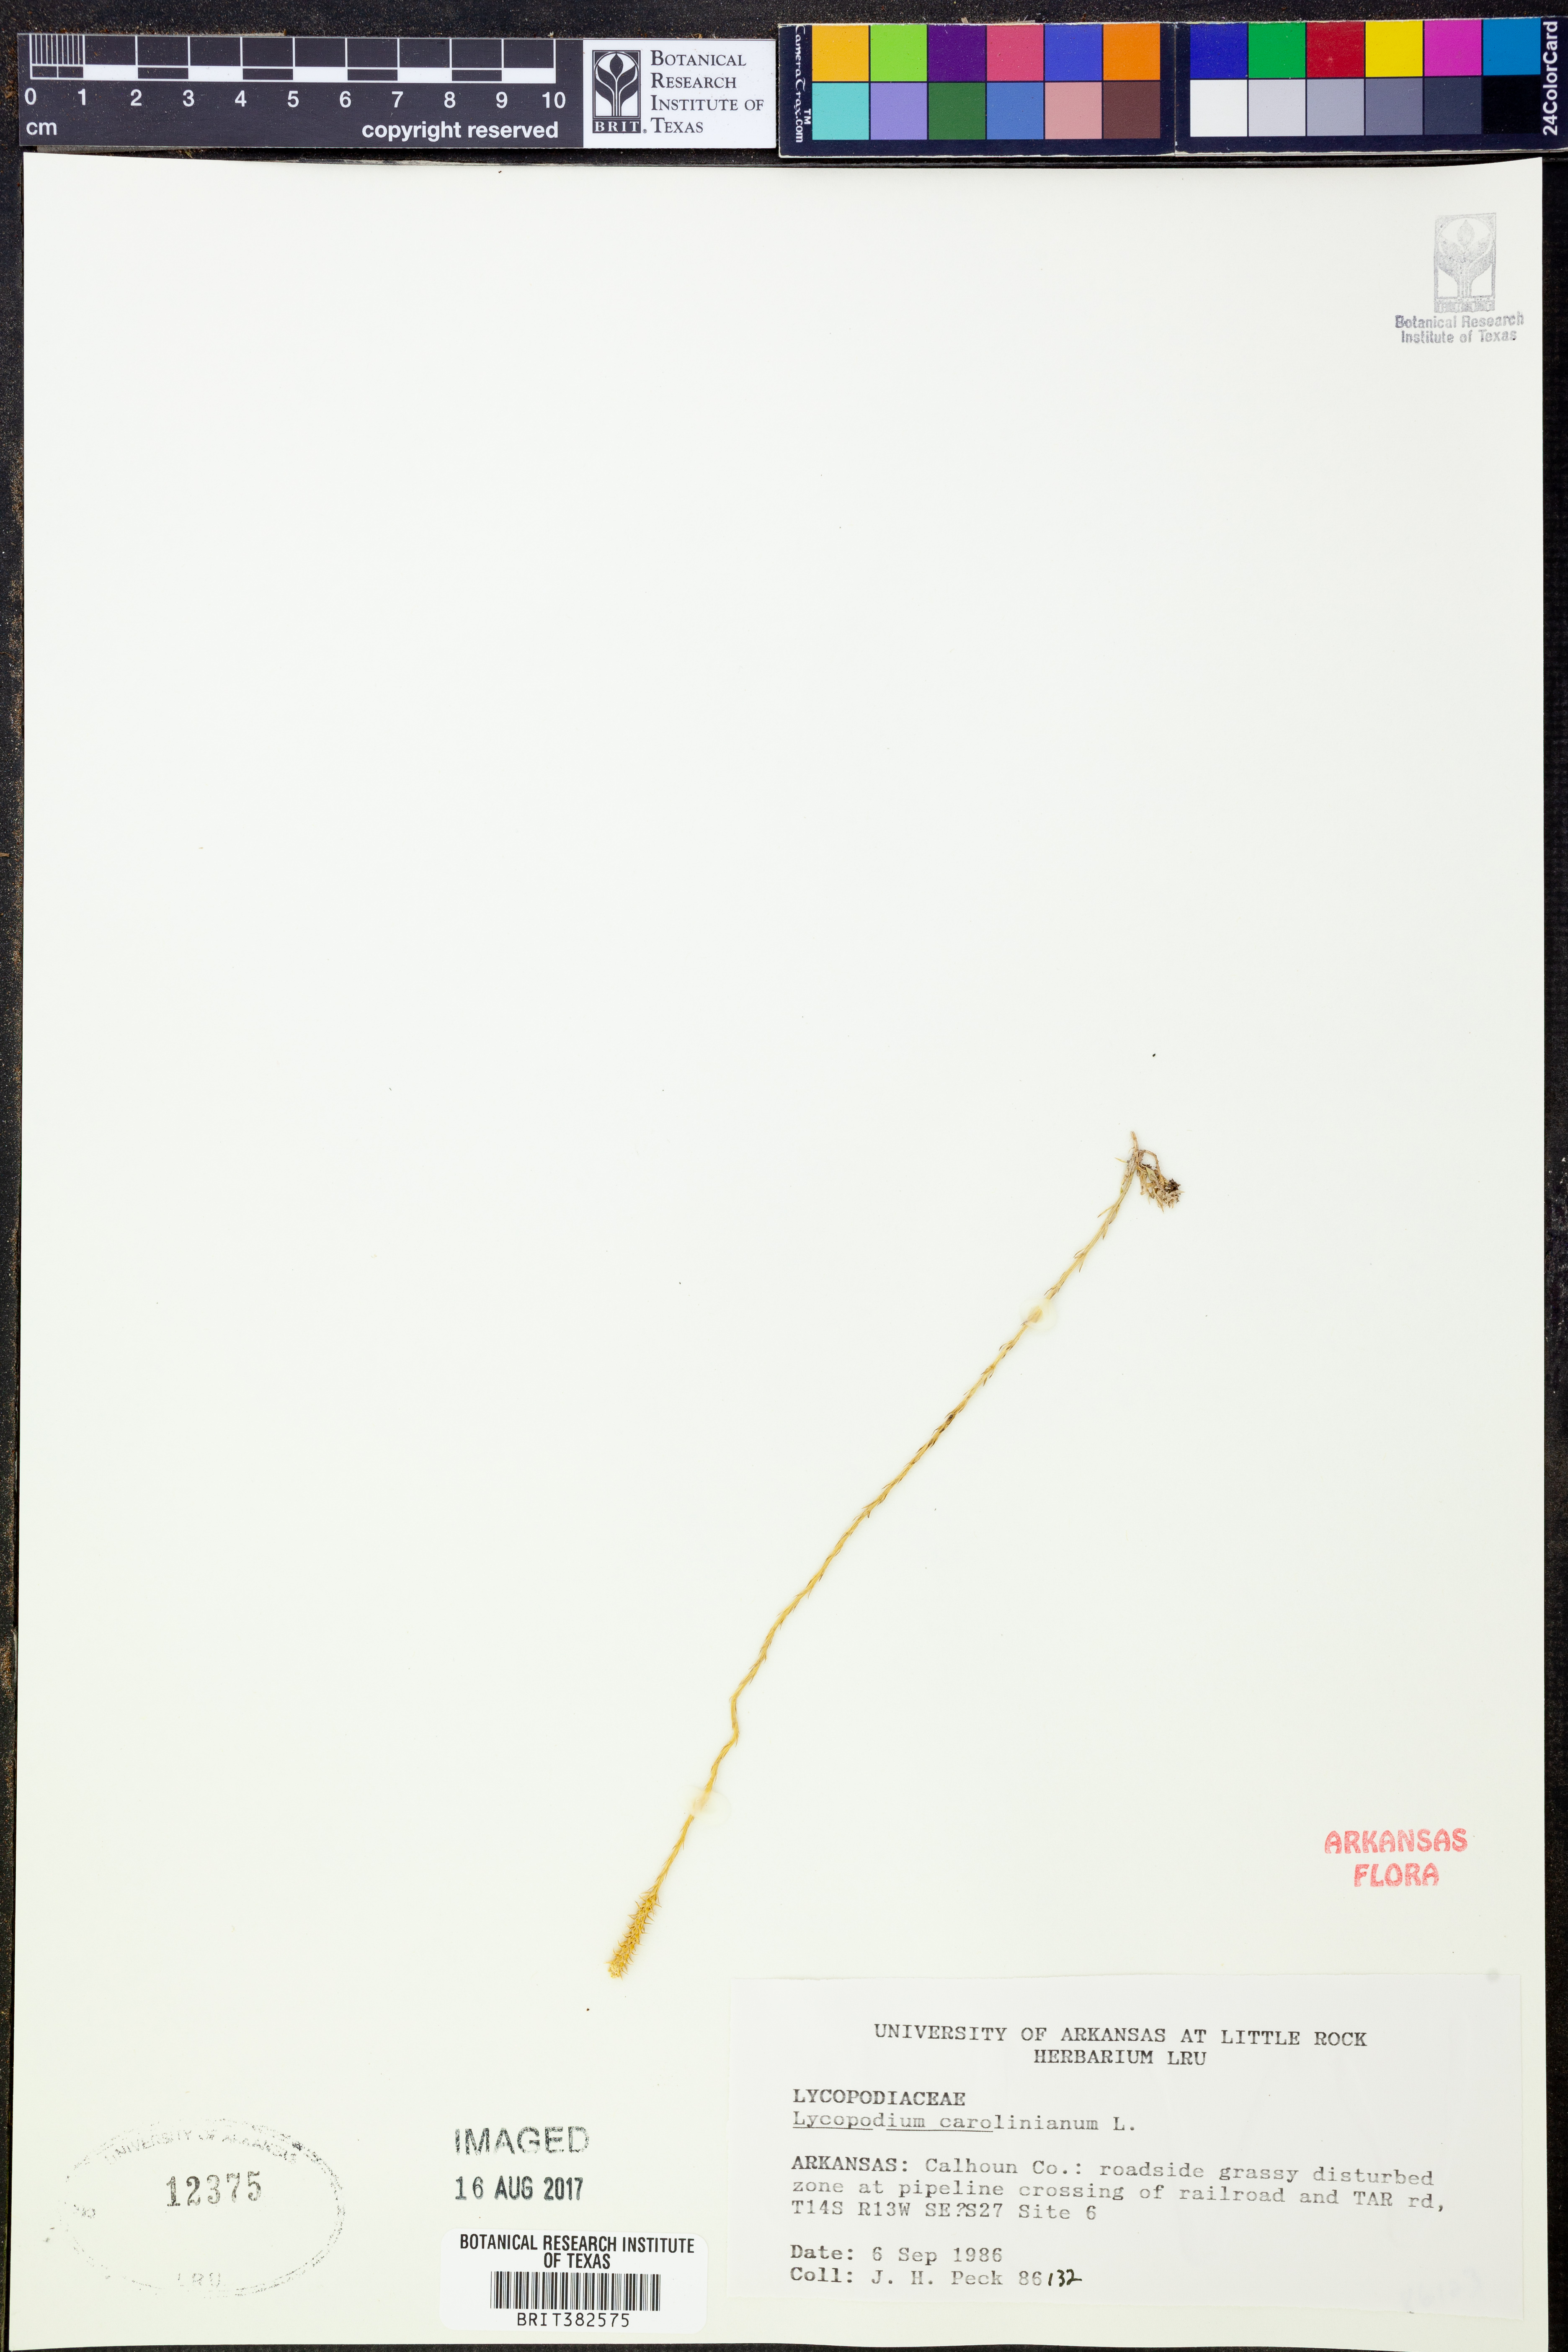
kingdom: Plantae
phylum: Tracheophyta
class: Lycopodiopsida
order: Lycopodiales
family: Lycopodiaceae
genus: Pseudolycopodiella
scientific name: Pseudolycopodiella caroliniana
